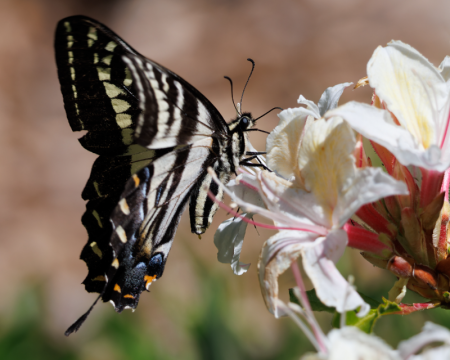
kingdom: Animalia
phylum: Arthropoda
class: Insecta
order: Lepidoptera
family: Papilionidae
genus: Pterourus
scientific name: Pterourus eurymedon
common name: Pale Swallowtail
